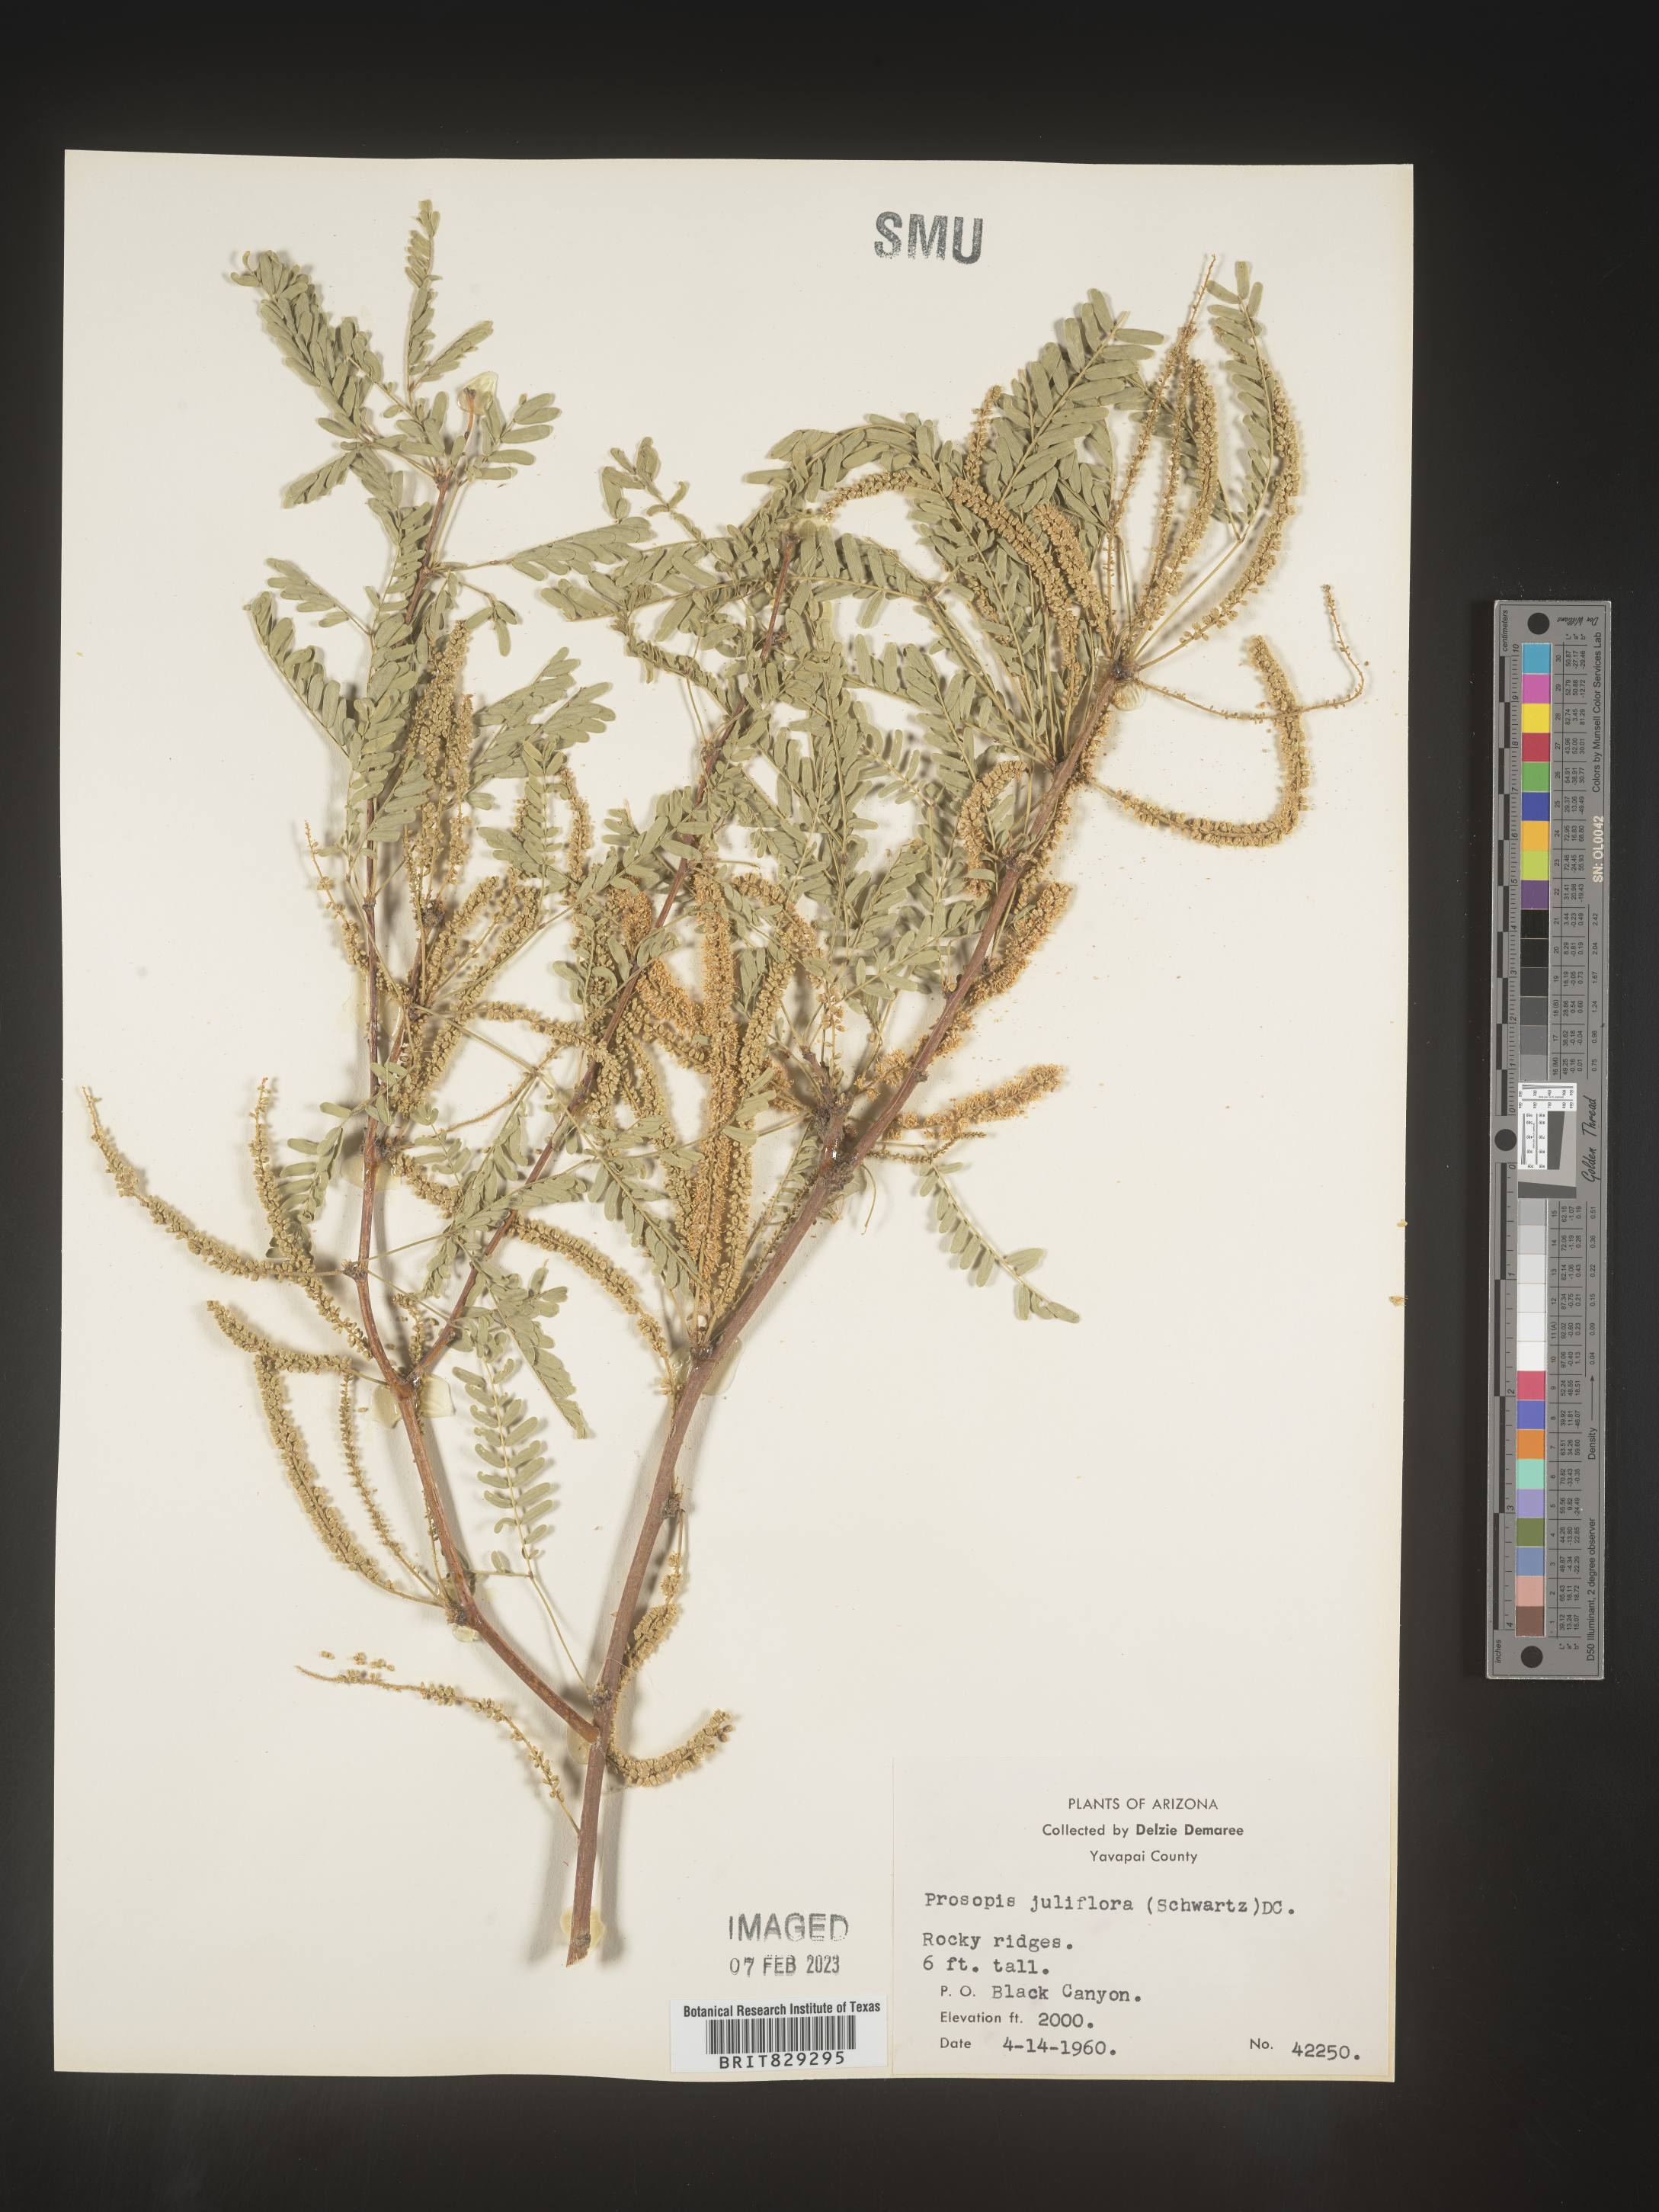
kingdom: Plantae
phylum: Tracheophyta
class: Magnoliopsida
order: Fabales
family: Fabaceae
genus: Prosopis
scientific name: Prosopis juliflora
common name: Mesquite
